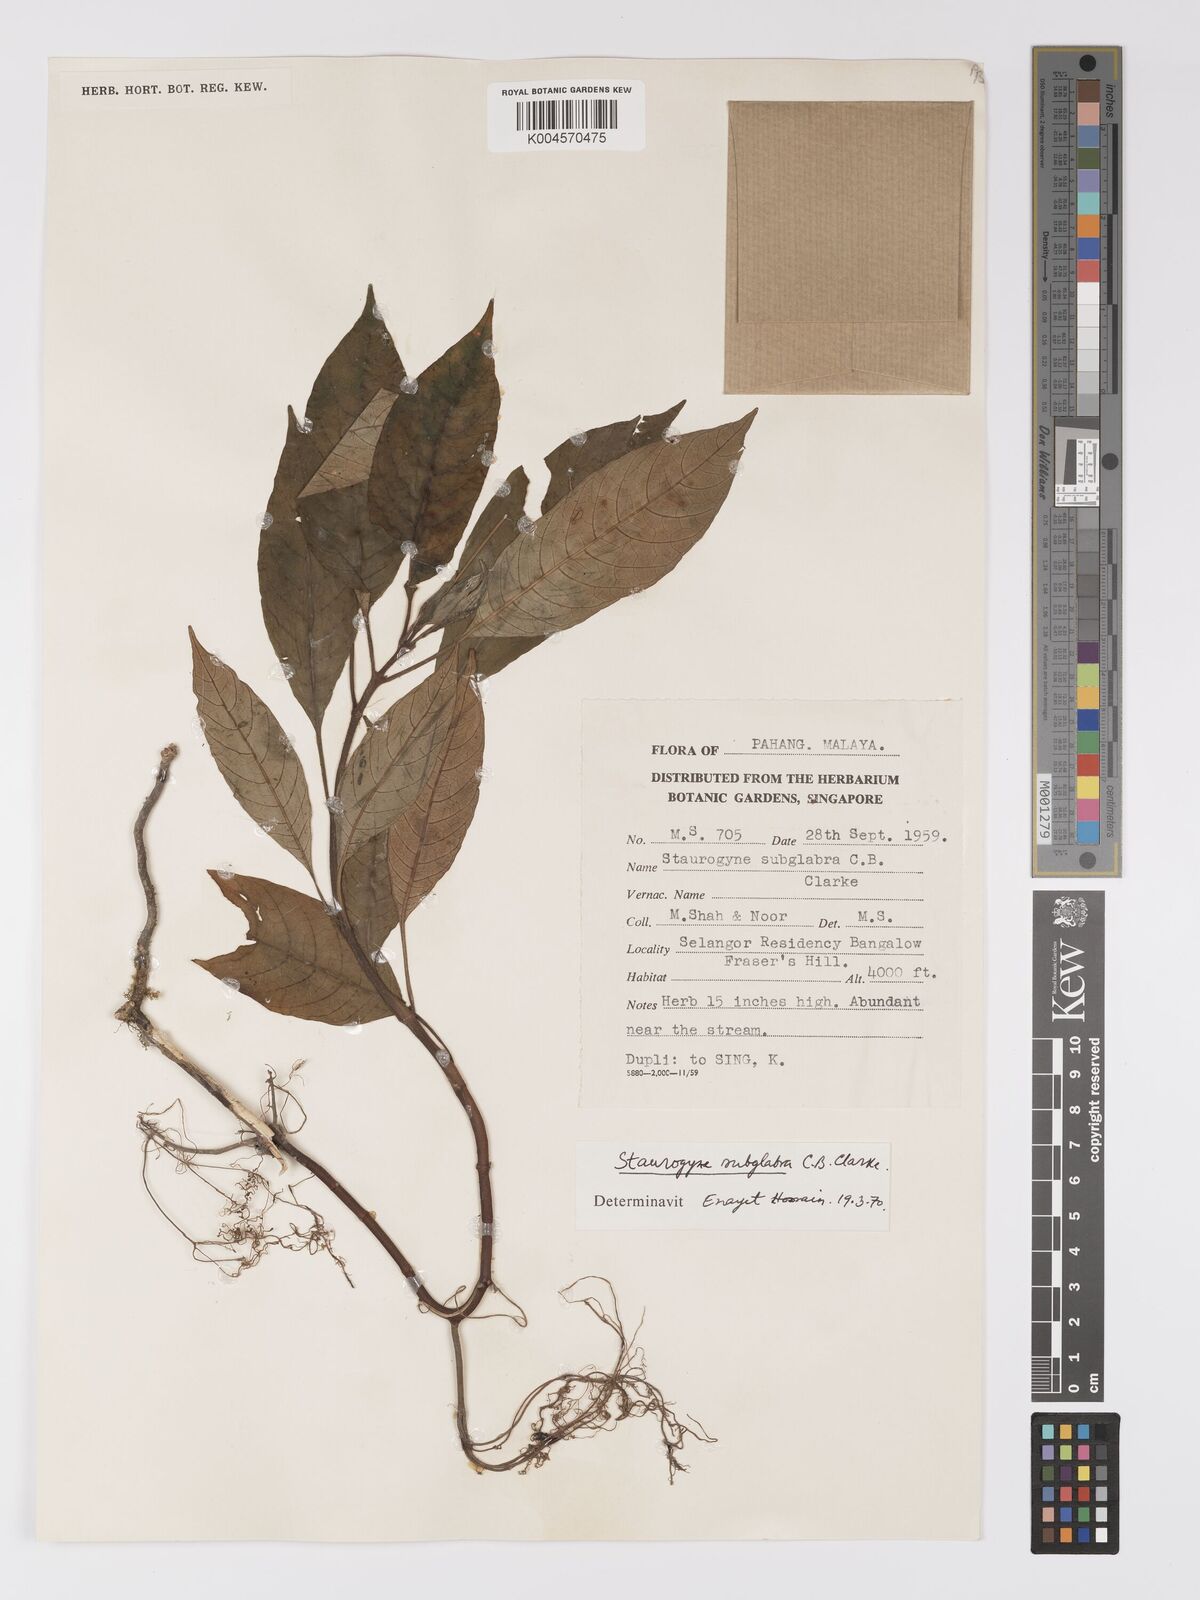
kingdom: Plantae
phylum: Tracheophyta
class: Magnoliopsida
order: Lamiales
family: Acanthaceae
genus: Staurogyne
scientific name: Staurogyne subglabra
